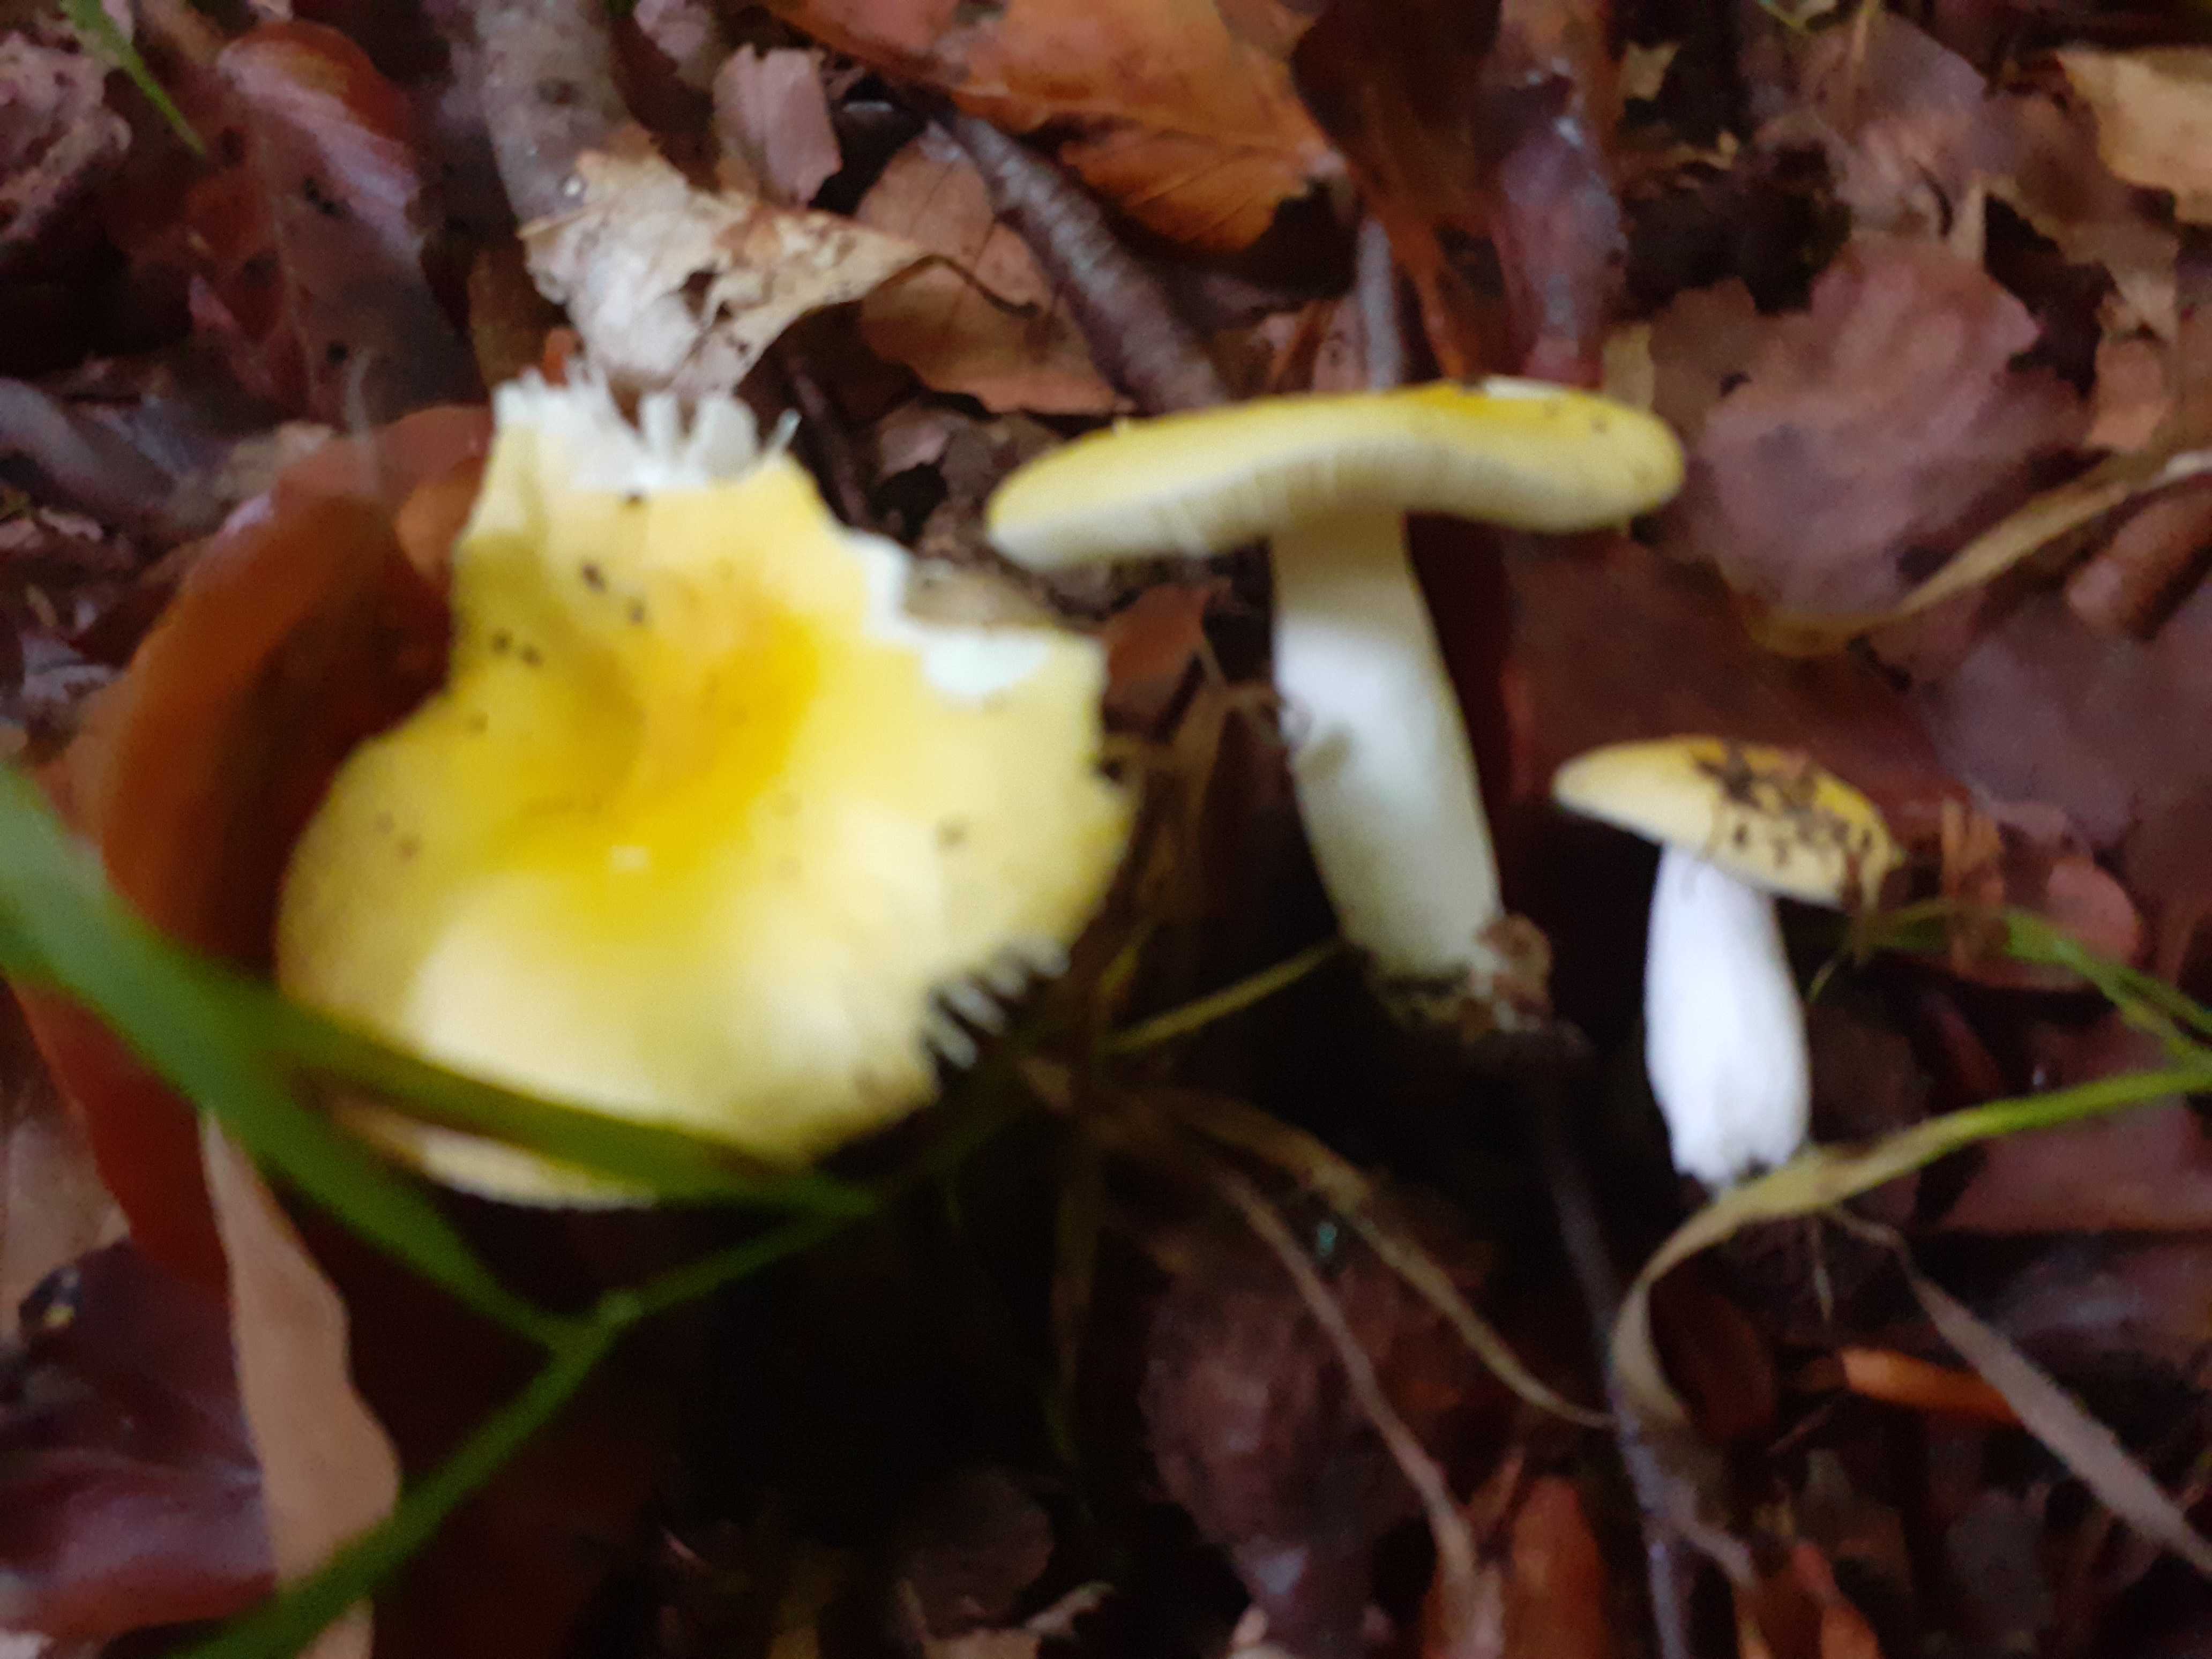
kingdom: Fungi
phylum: Basidiomycota
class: Agaricomycetes
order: Russulales
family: Russulaceae
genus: Russula
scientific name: Russula solaris
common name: sol-skørhat
